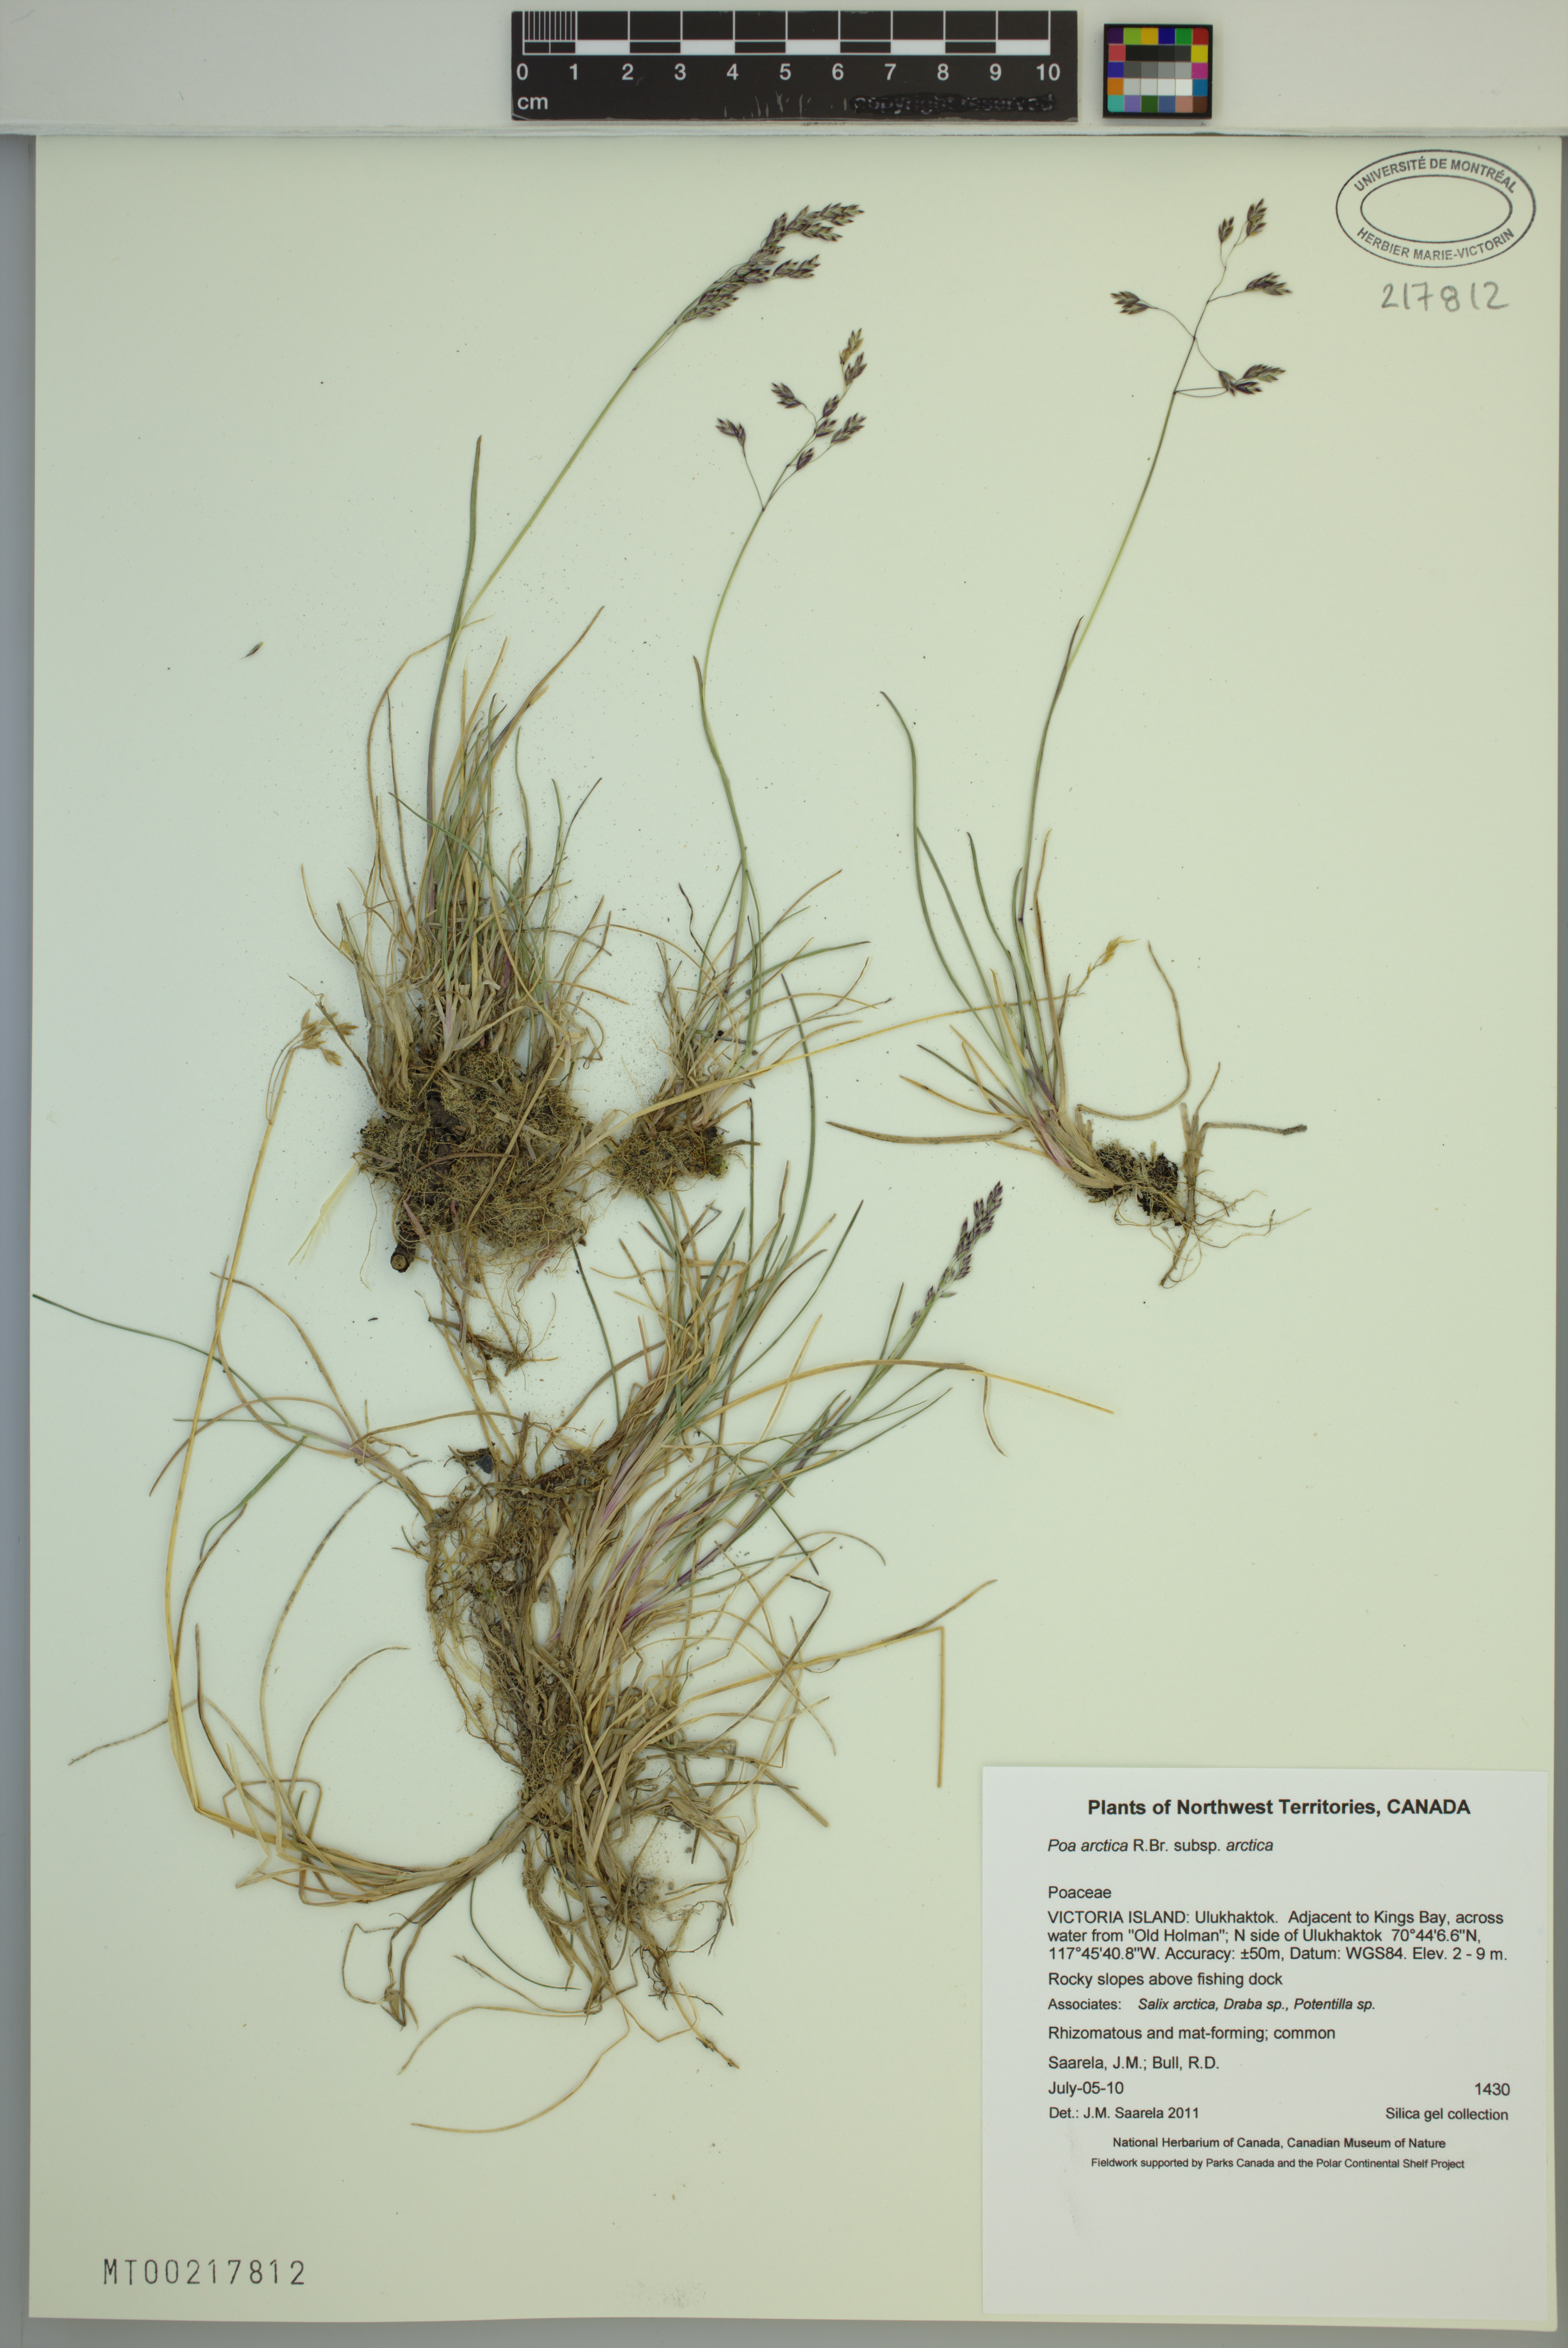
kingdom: Plantae
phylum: Tracheophyta
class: Liliopsida
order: Poales
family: Poaceae
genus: Poa
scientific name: Poa arctica
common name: Arctic bluegrass
